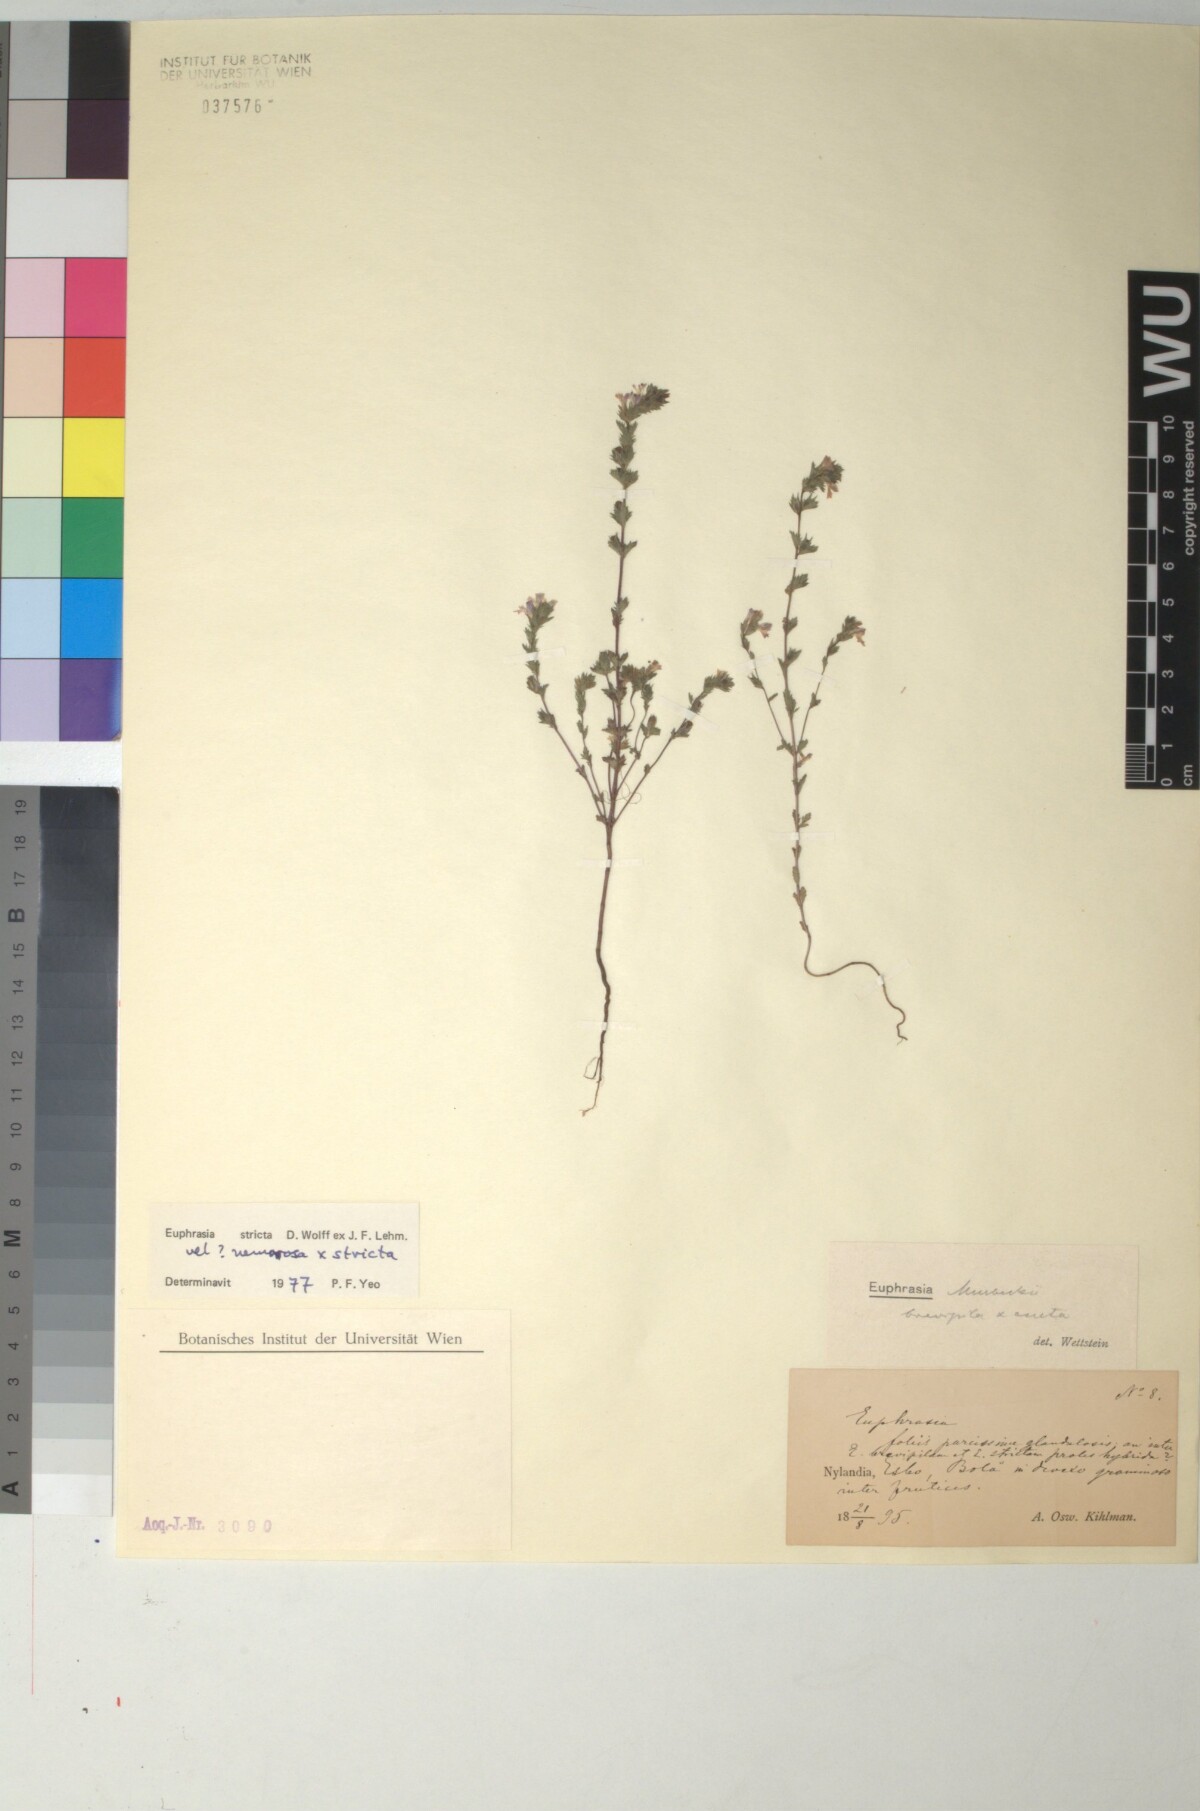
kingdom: Plantae
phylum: Tracheophyta
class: Magnoliopsida
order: Lamiales
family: Scrophulariaceae
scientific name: Scrophulariaceae
